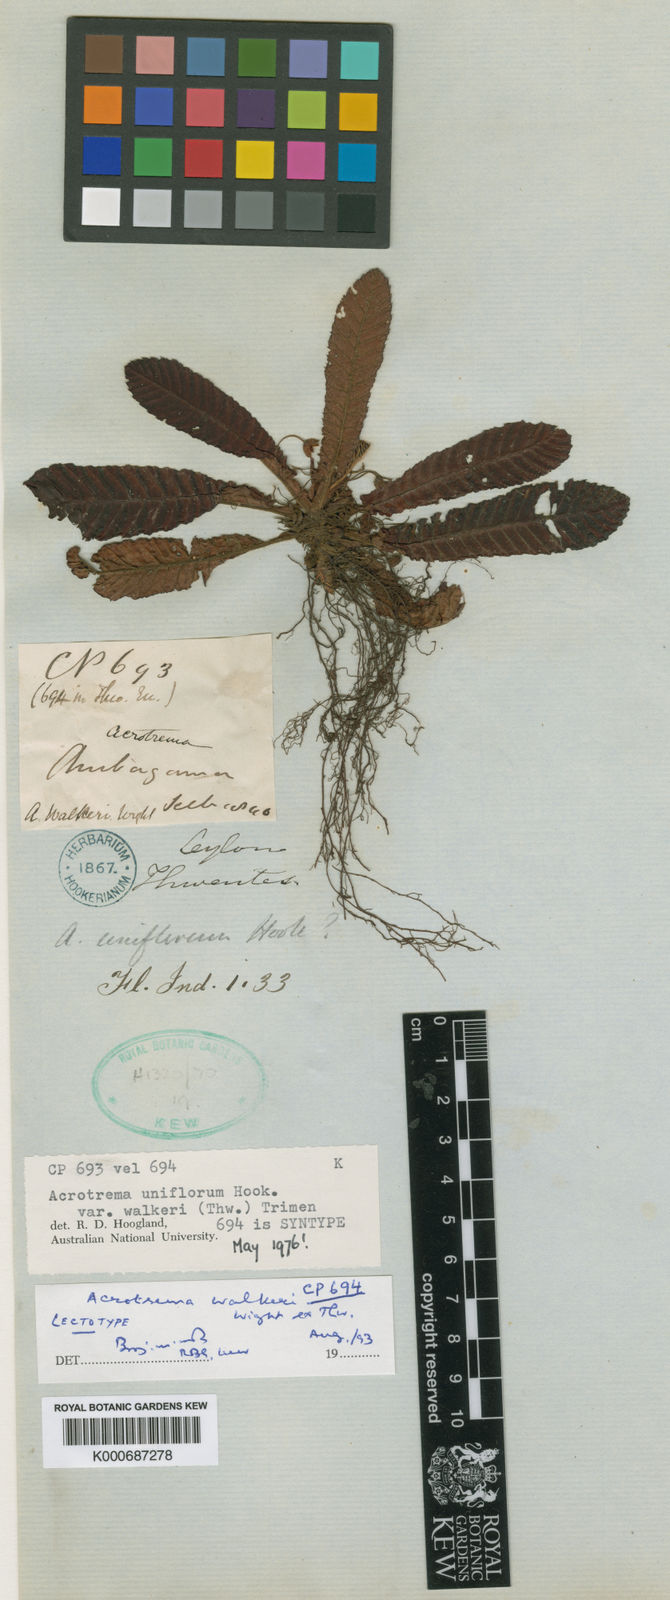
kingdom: Plantae
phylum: Tracheophyta
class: Magnoliopsida
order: Dilleniales
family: Dilleniaceae
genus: Acrotrema
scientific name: Acrotrema uniflorum
